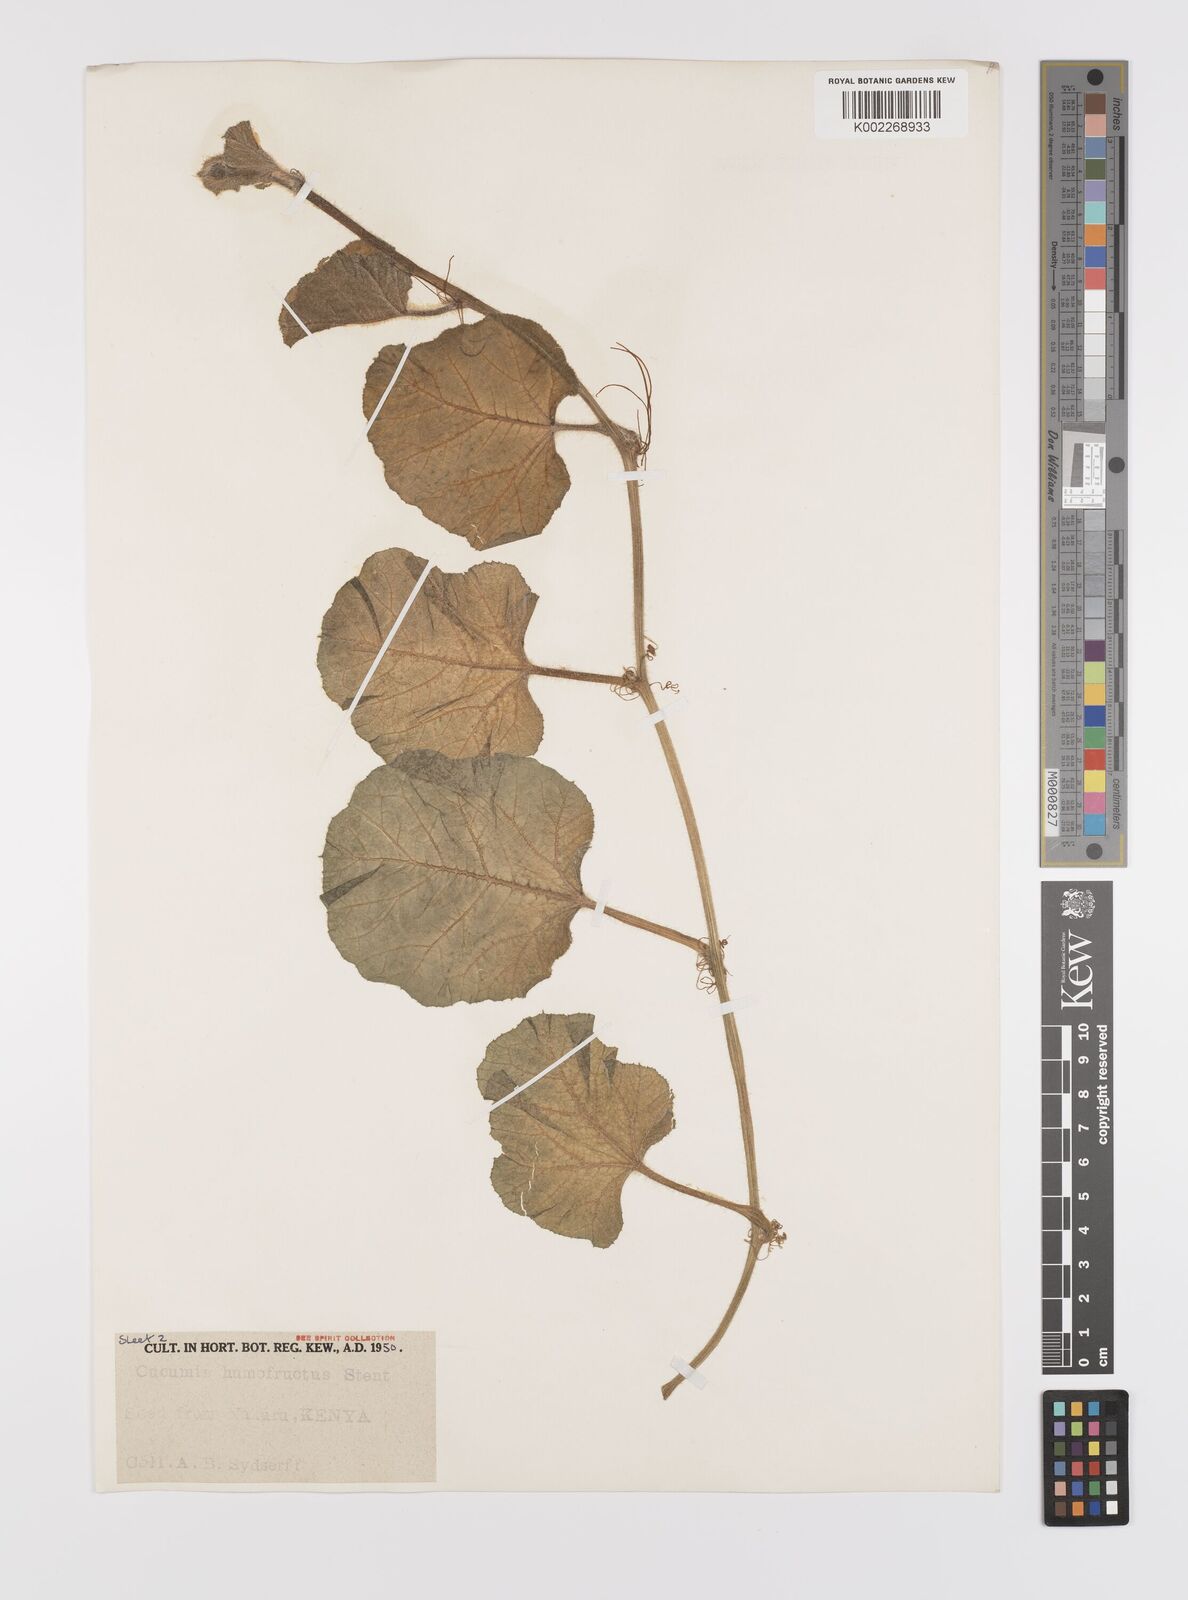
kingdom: Plantae
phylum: Tracheophyta
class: Magnoliopsida
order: Cucurbitales
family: Cucurbitaceae
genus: Cucumis
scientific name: Cucumis humofructus
